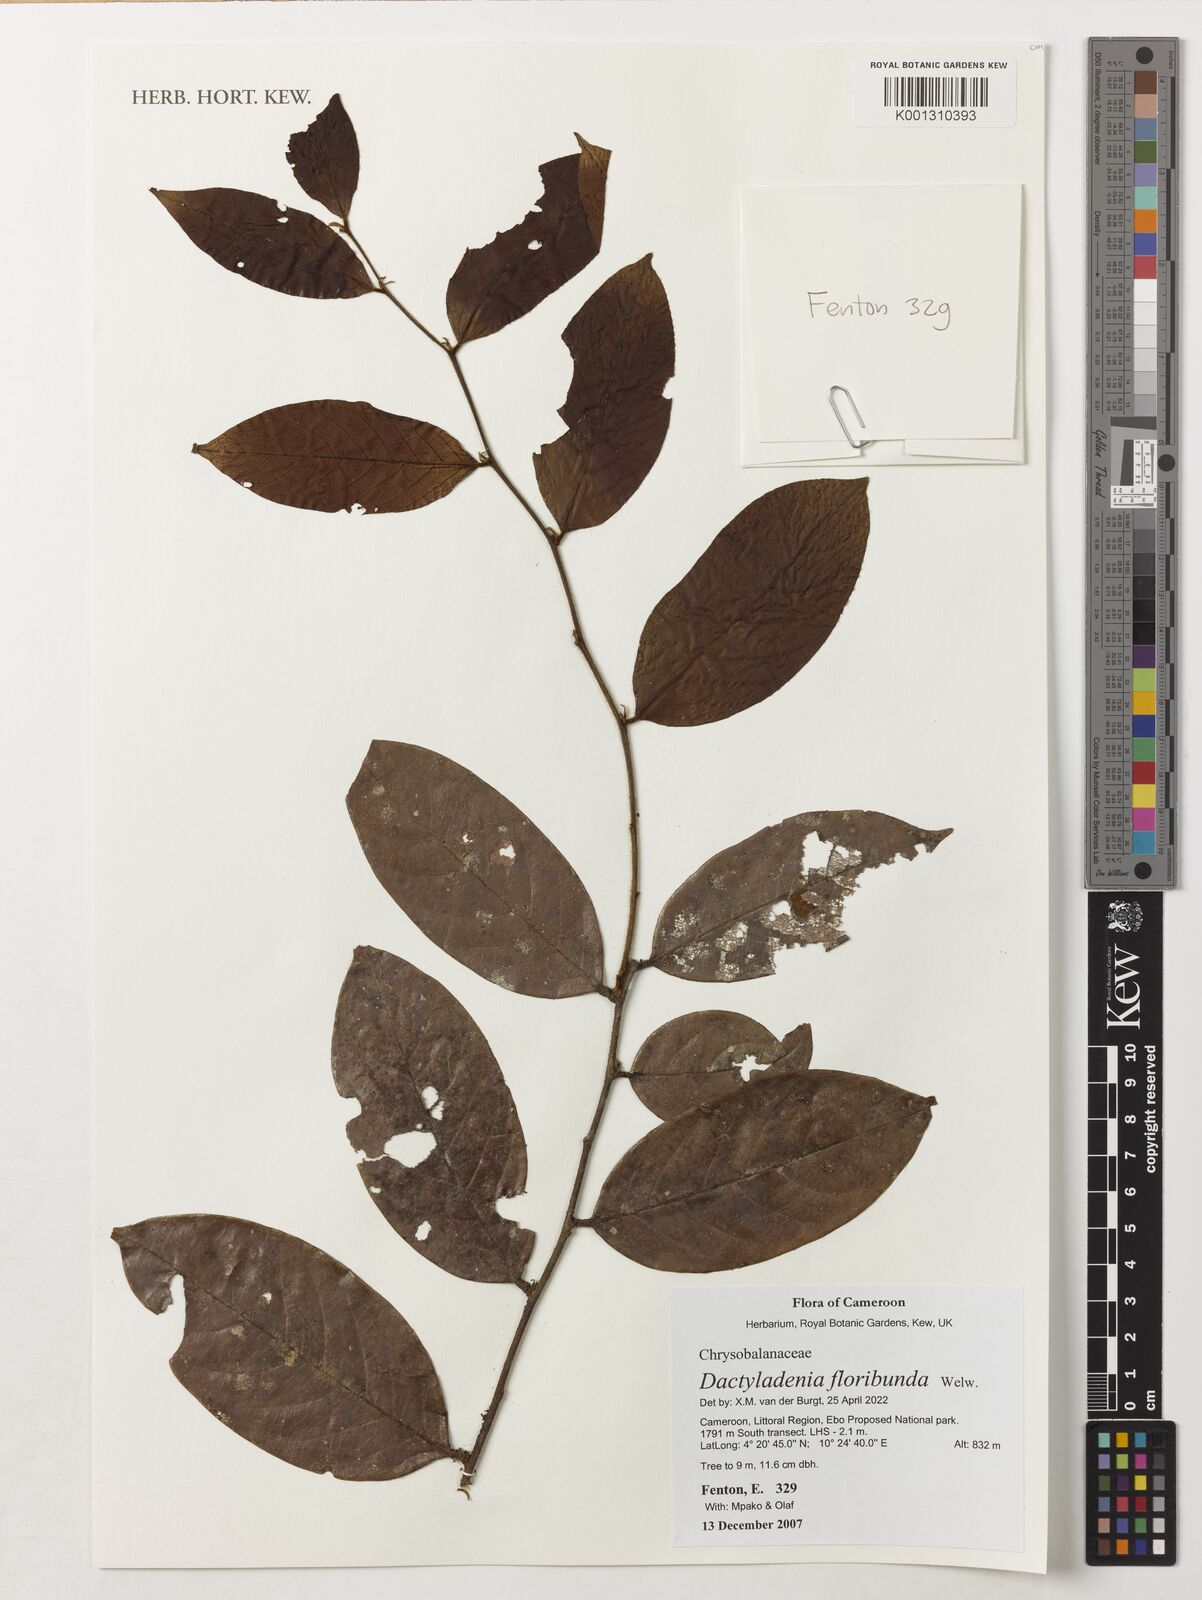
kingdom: Plantae
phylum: Tracheophyta
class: Magnoliopsida
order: Malpighiales
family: Chrysobalanaceae
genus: Dactyladenia
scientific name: Dactyladenia floribunda
